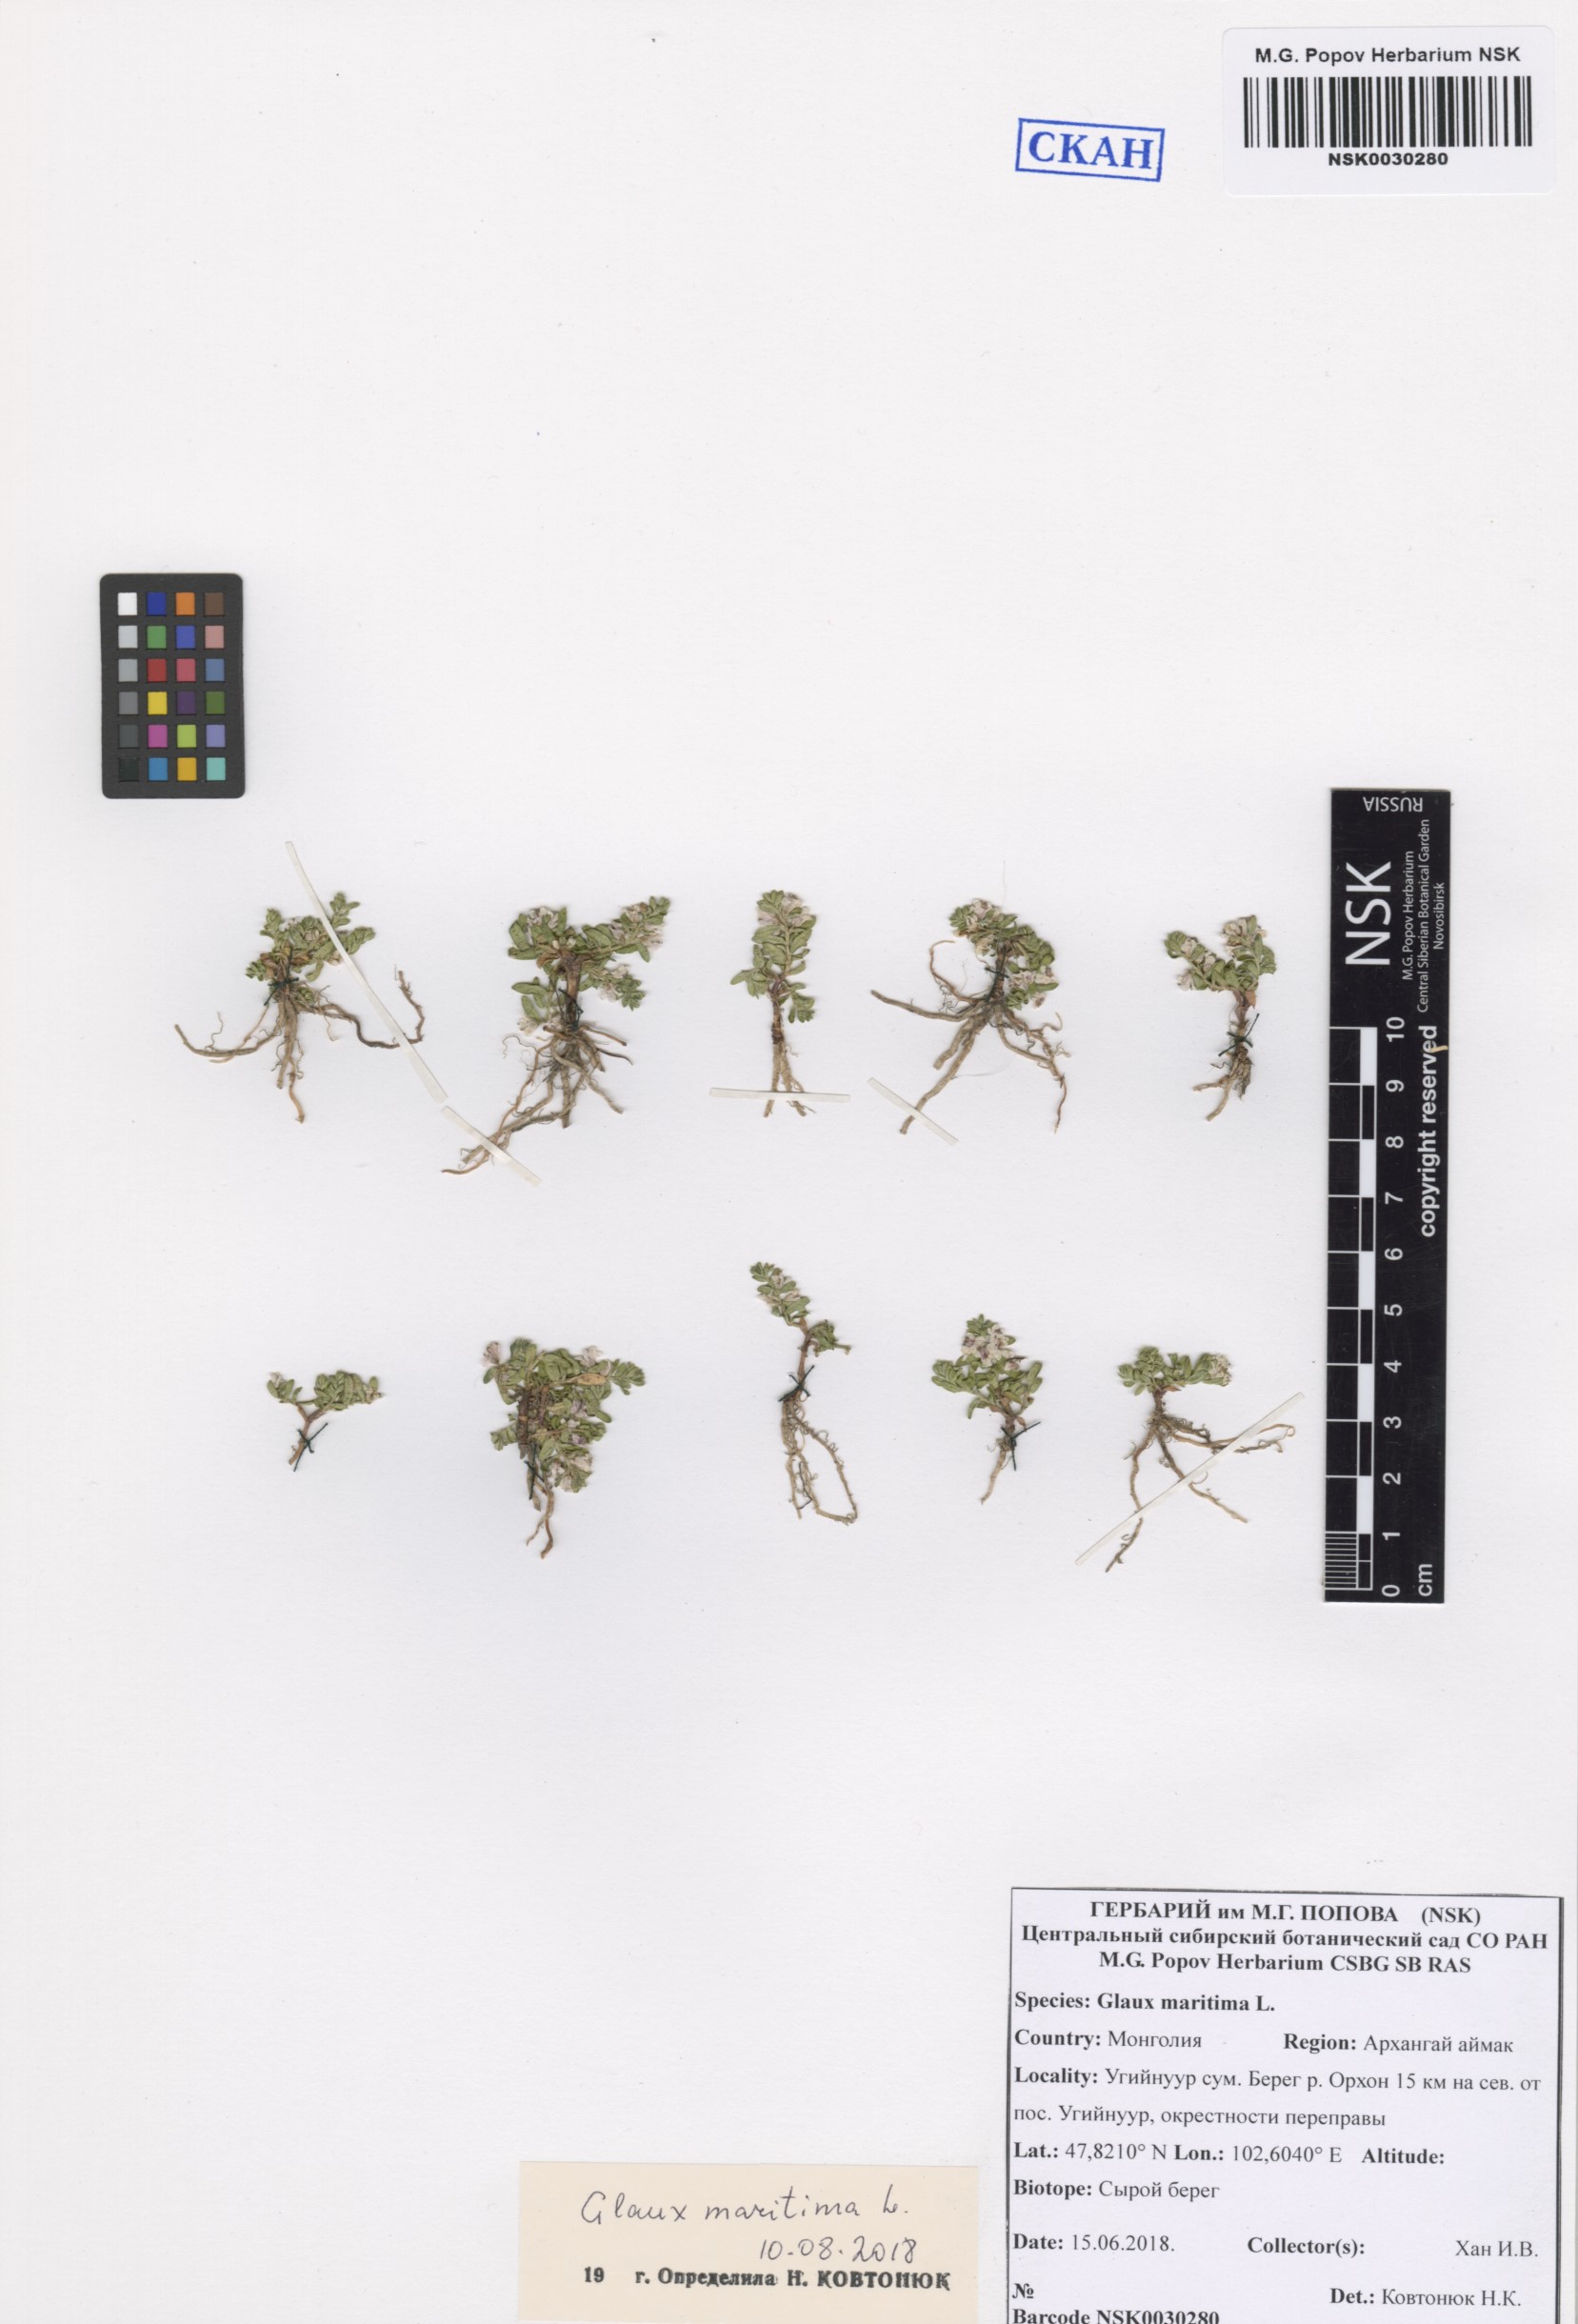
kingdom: Plantae
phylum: Tracheophyta
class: Magnoliopsida
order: Ericales
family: Primulaceae
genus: Lysimachia
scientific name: Lysimachia maritima
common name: Sea milkwort
